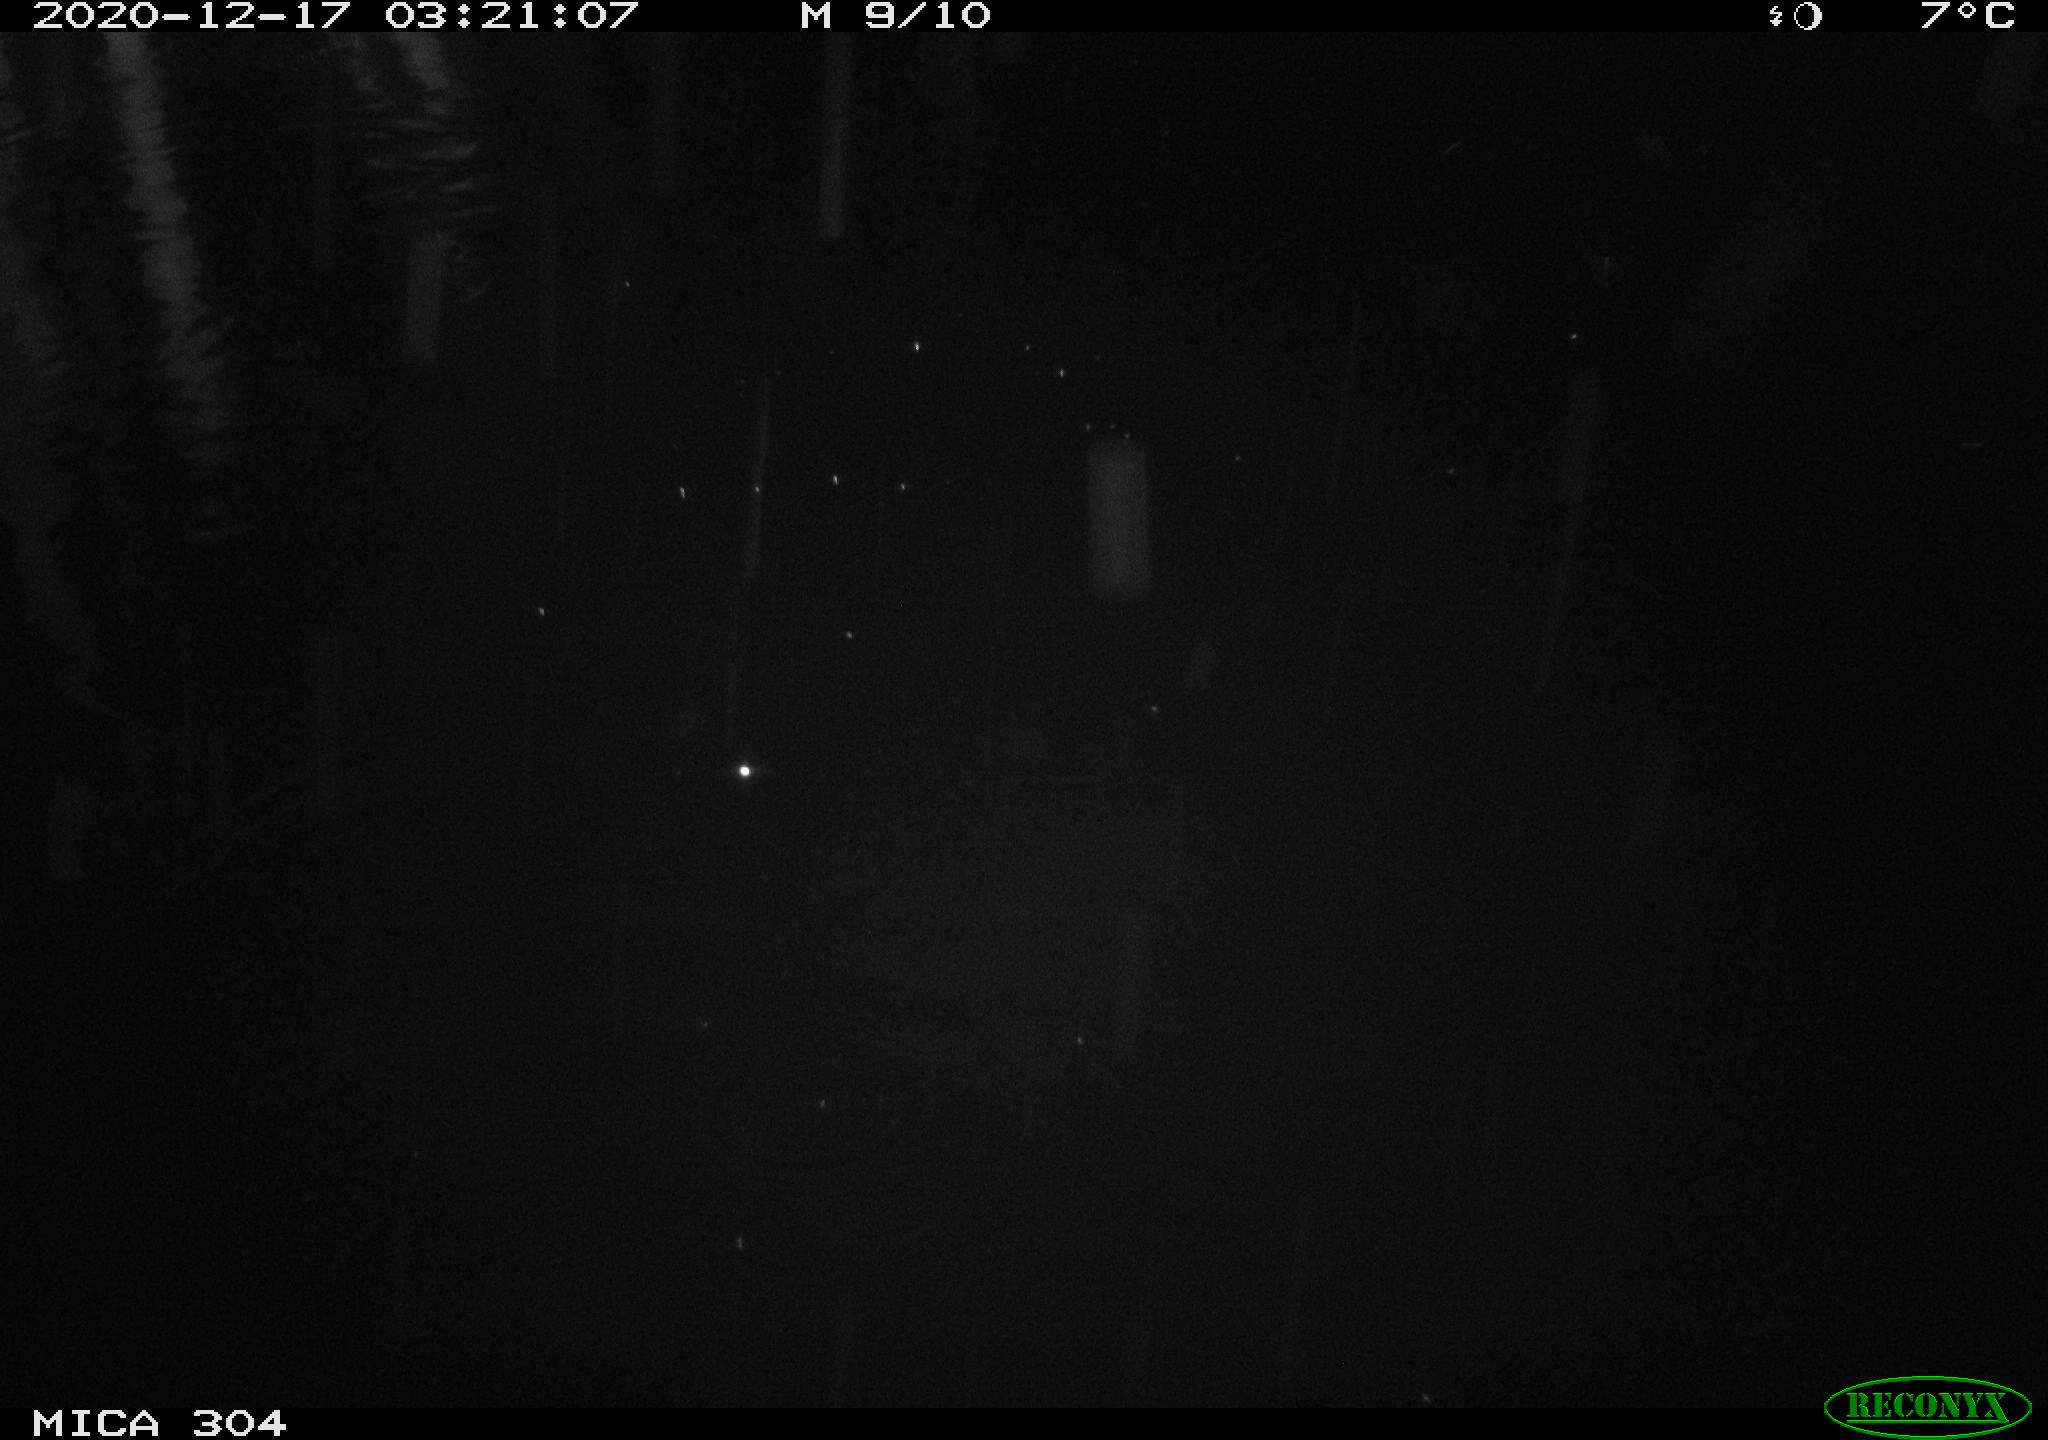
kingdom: Animalia
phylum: Chordata
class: Mammalia
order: Rodentia
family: Cricetidae
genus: Ondatra
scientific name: Ondatra zibethicus
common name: Muskrat
